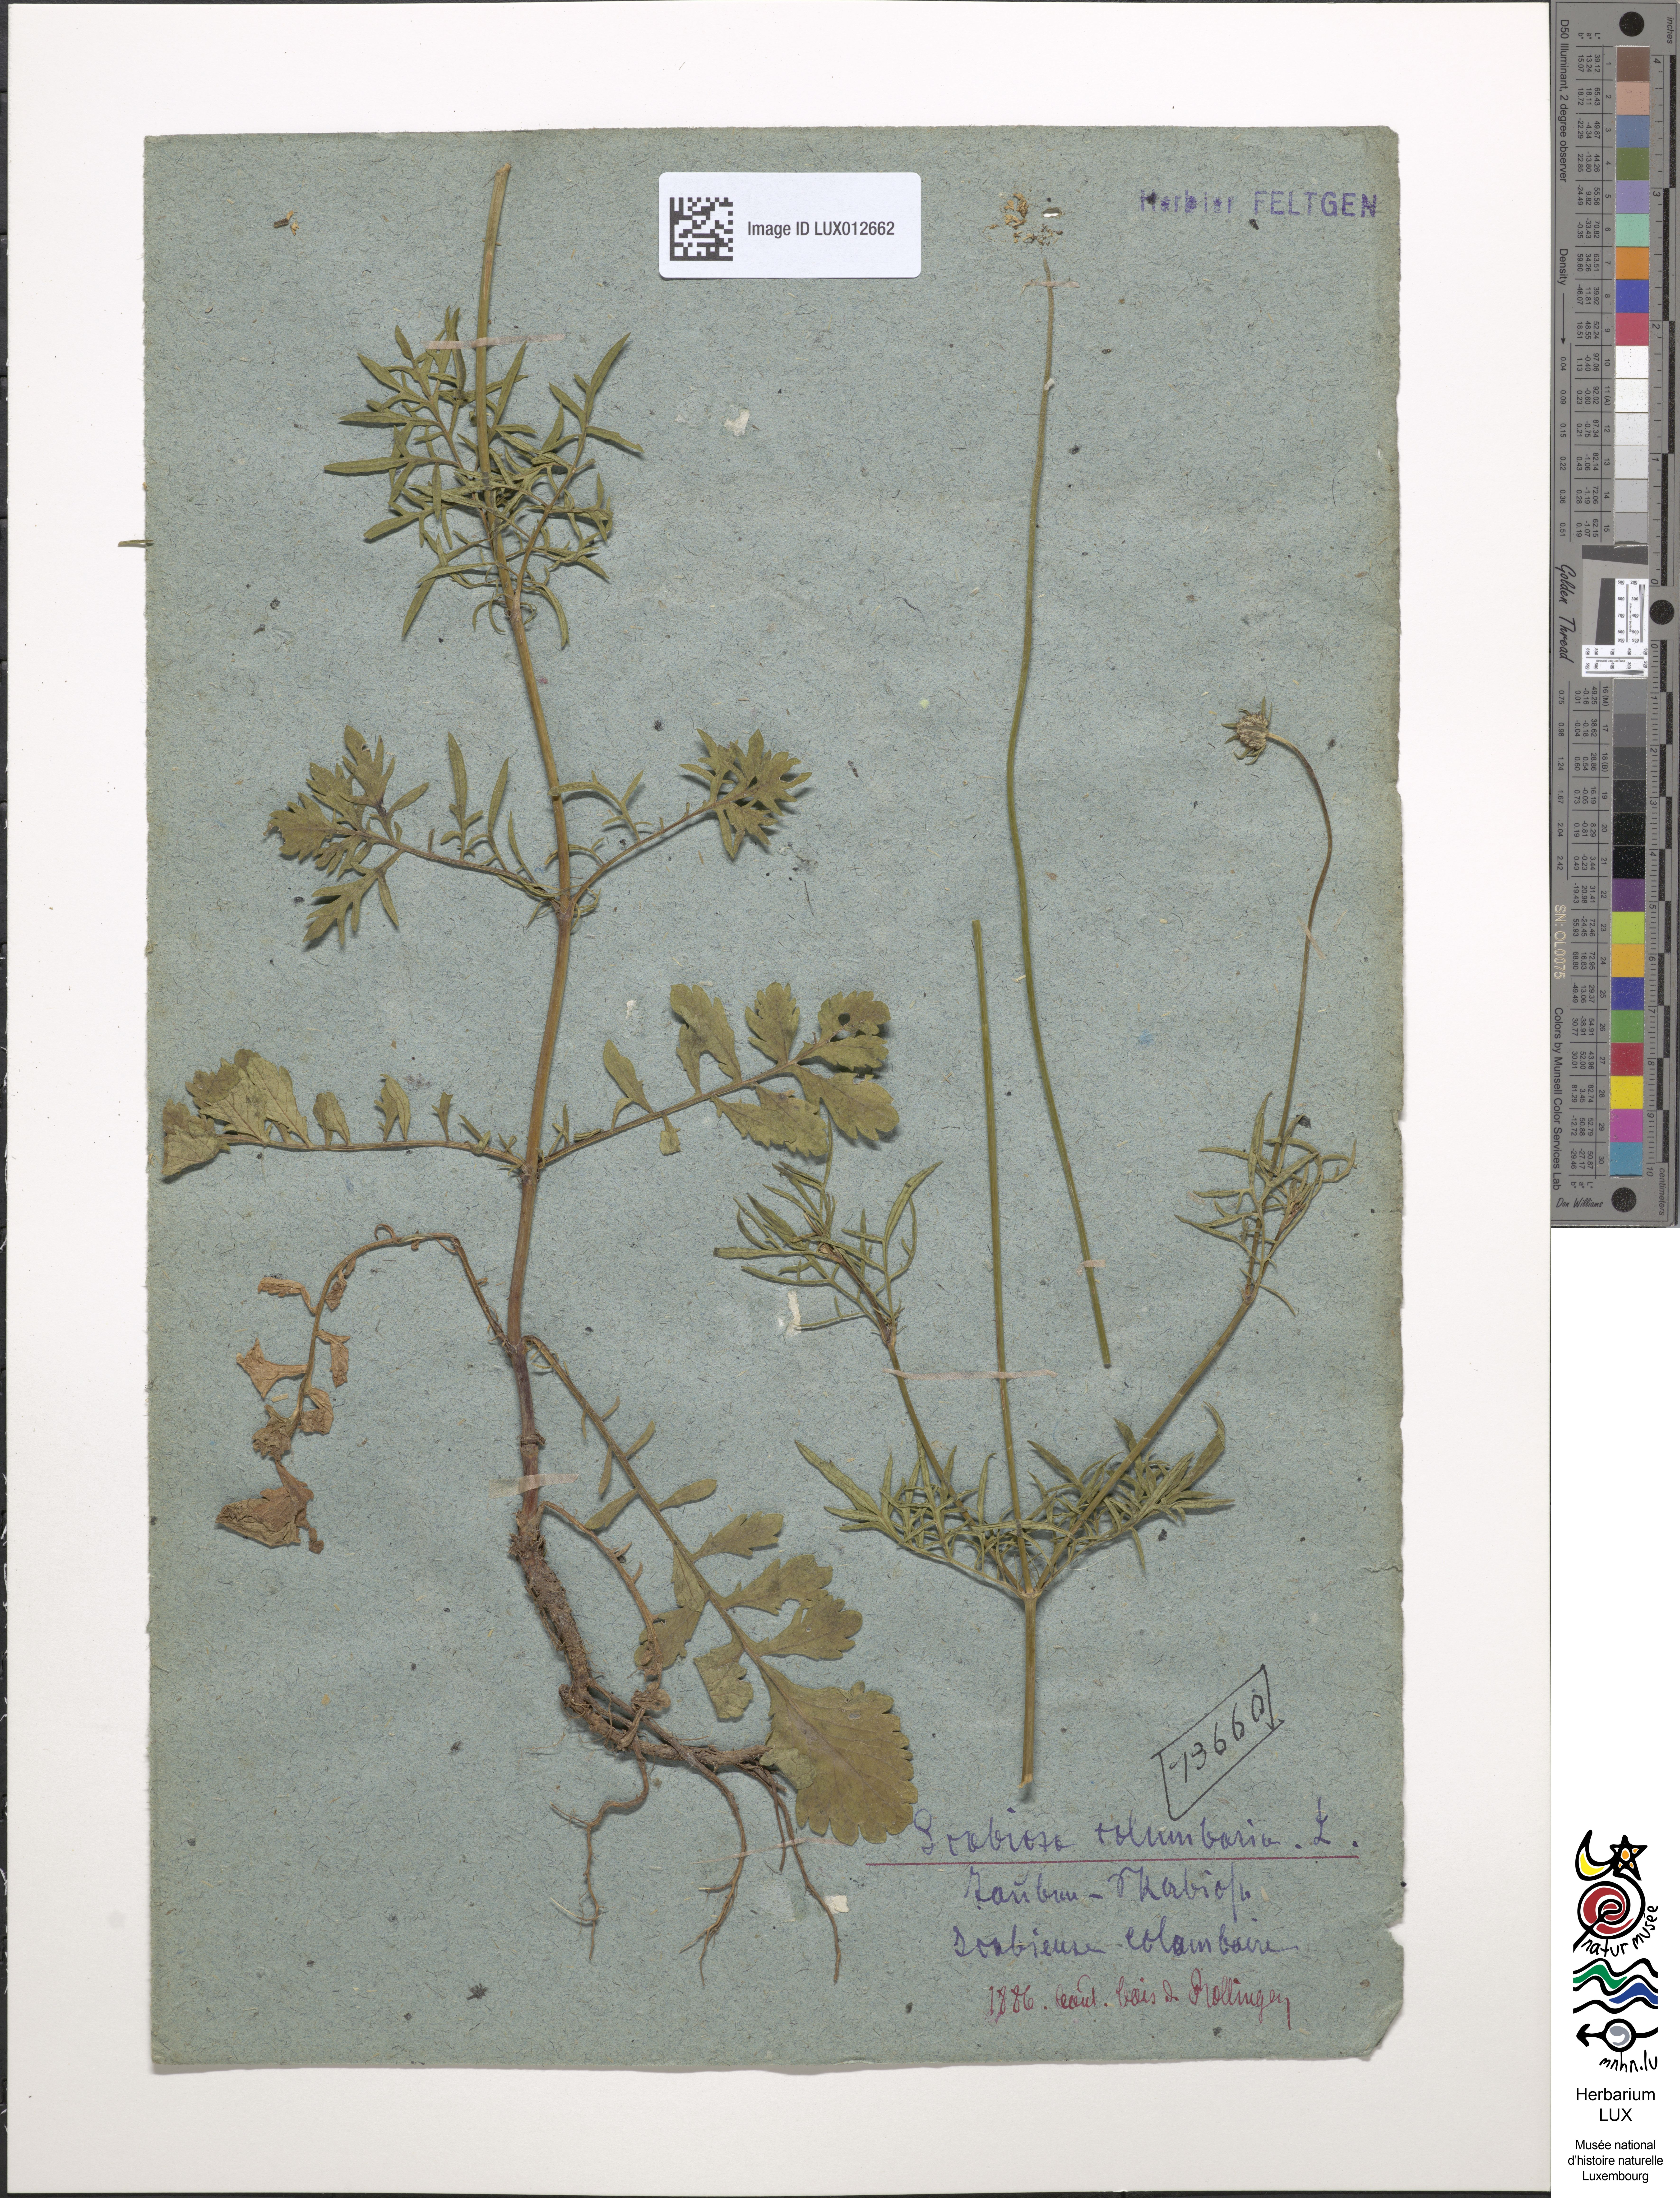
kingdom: Plantae
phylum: Tracheophyta
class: Magnoliopsida
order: Dipsacales
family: Caprifoliaceae
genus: Scabiosa
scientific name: Scabiosa columbaria
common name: Small scabious
